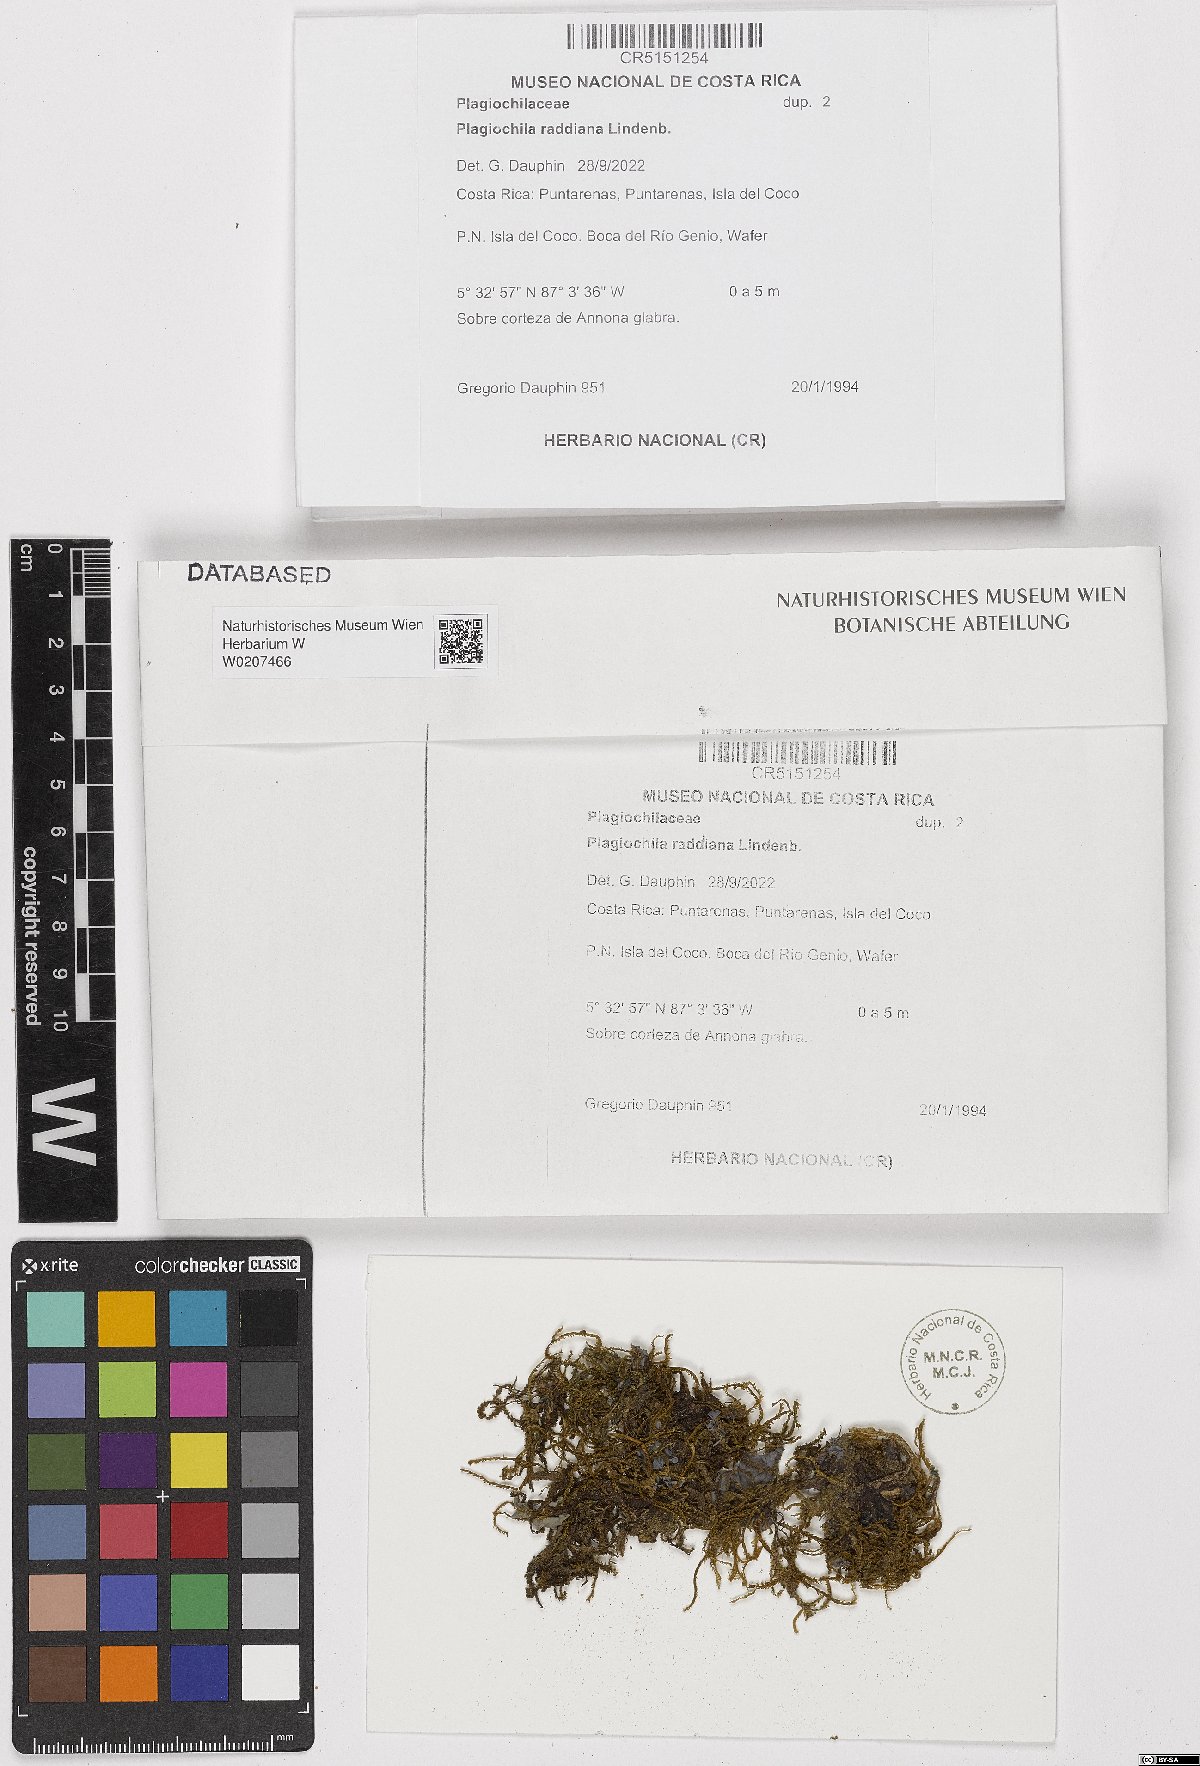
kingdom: Plantae
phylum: Marchantiophyta
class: Jungermanniopsida
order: Jungermanniales
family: Plagiochilaceae
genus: Plagiochila
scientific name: Plagiochila raddiana
